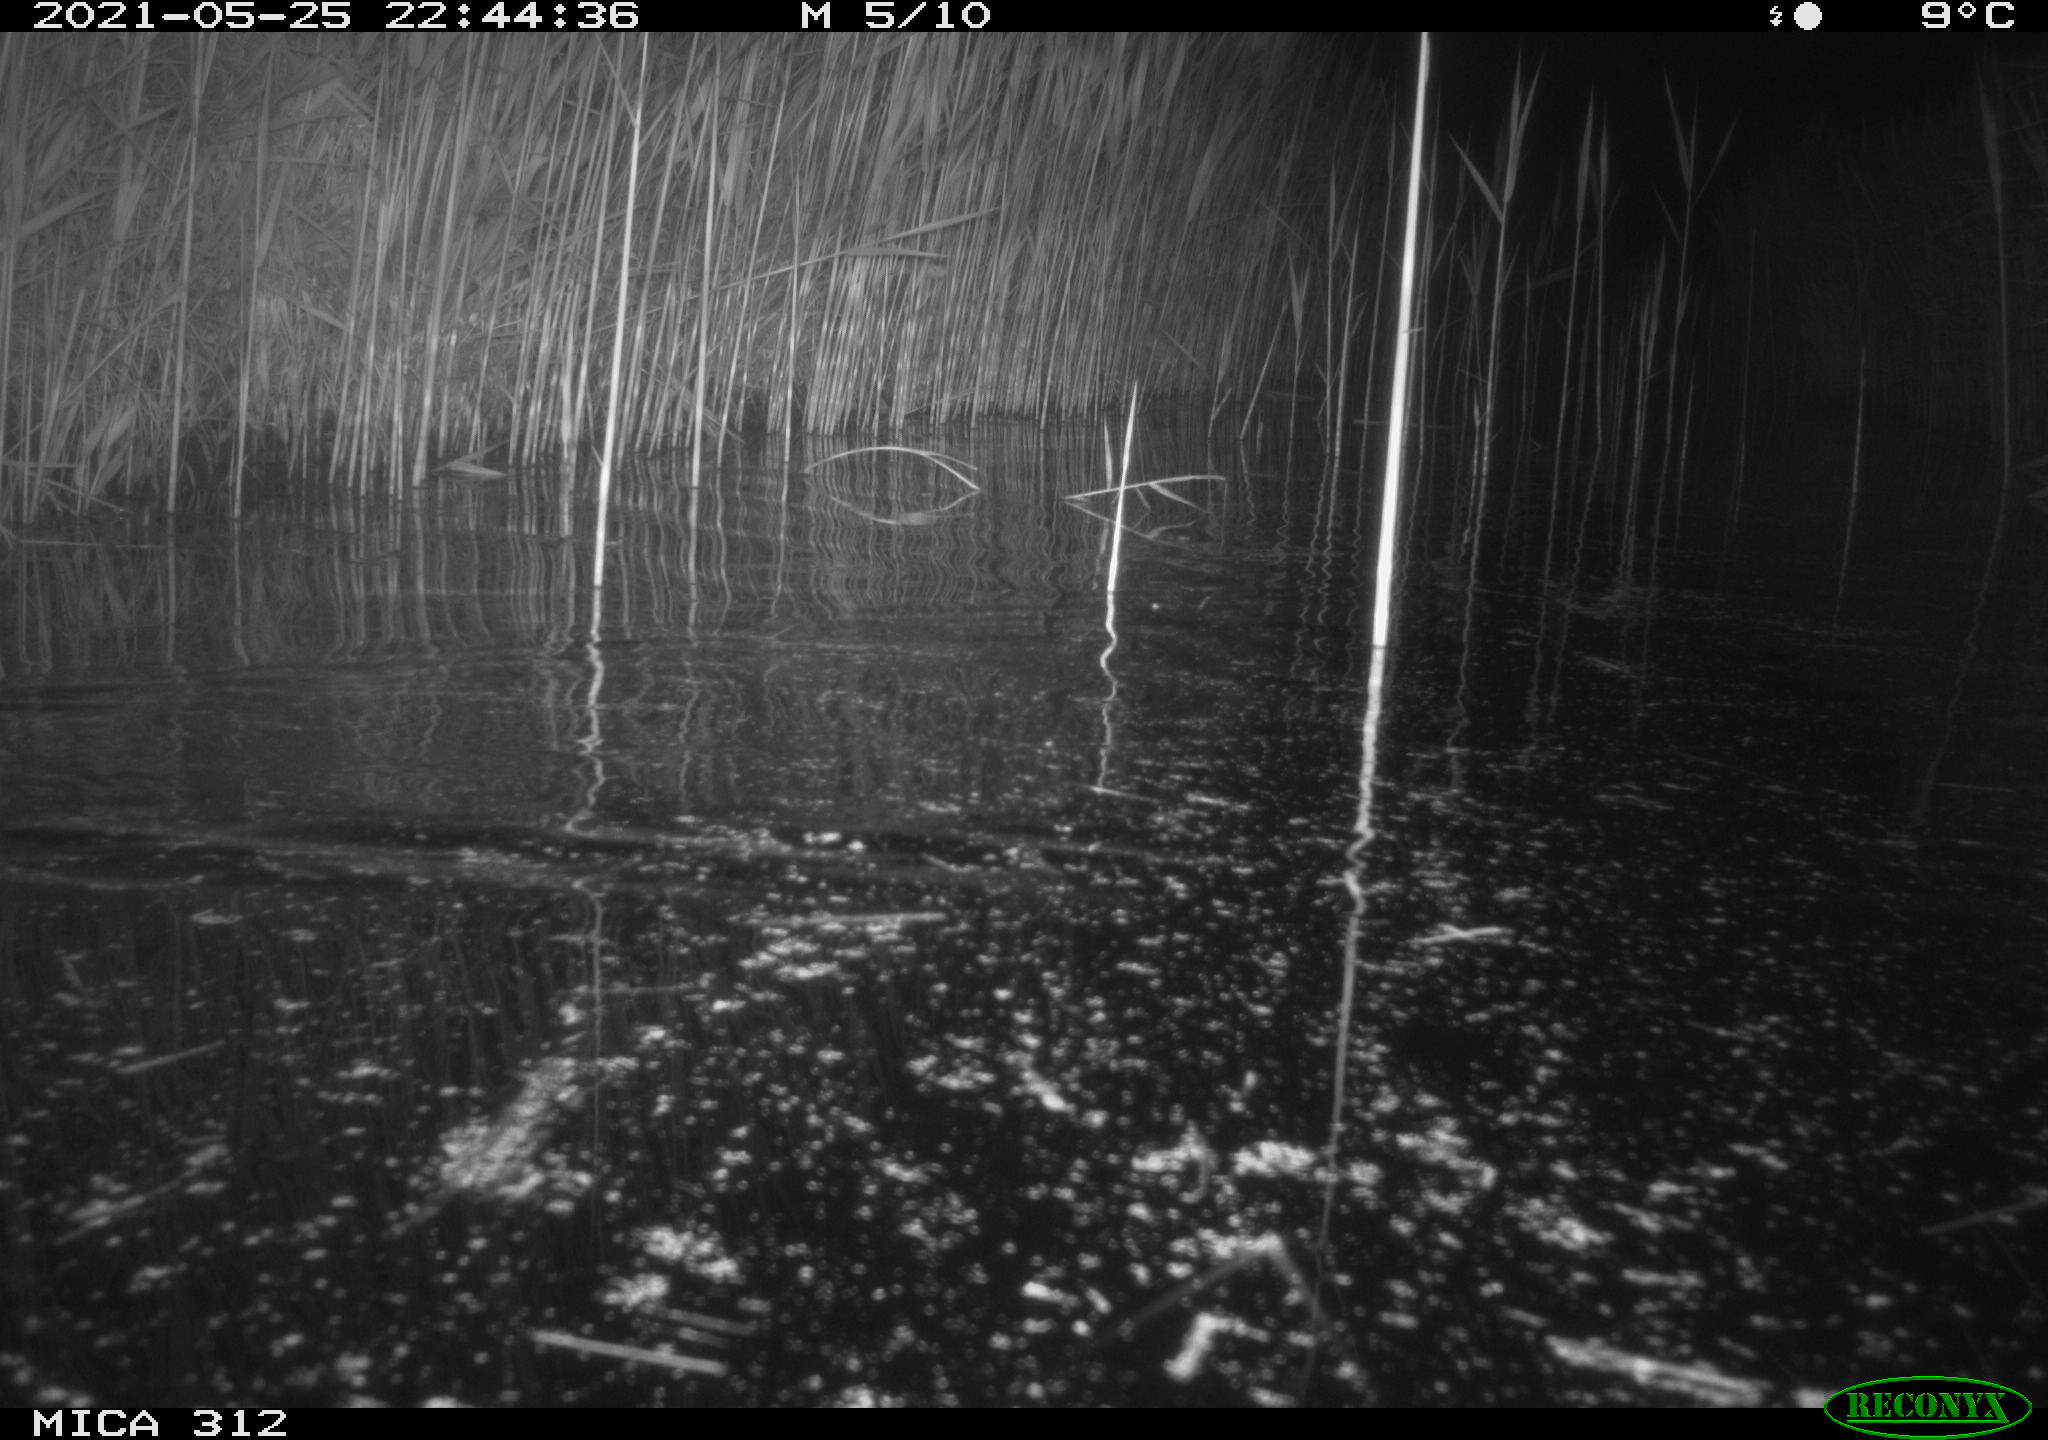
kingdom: Animalia
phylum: Chordata
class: Mammalia
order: Rodentia
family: Muridae
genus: Rattus
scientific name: Rattus norvegicus
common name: Brown rat
